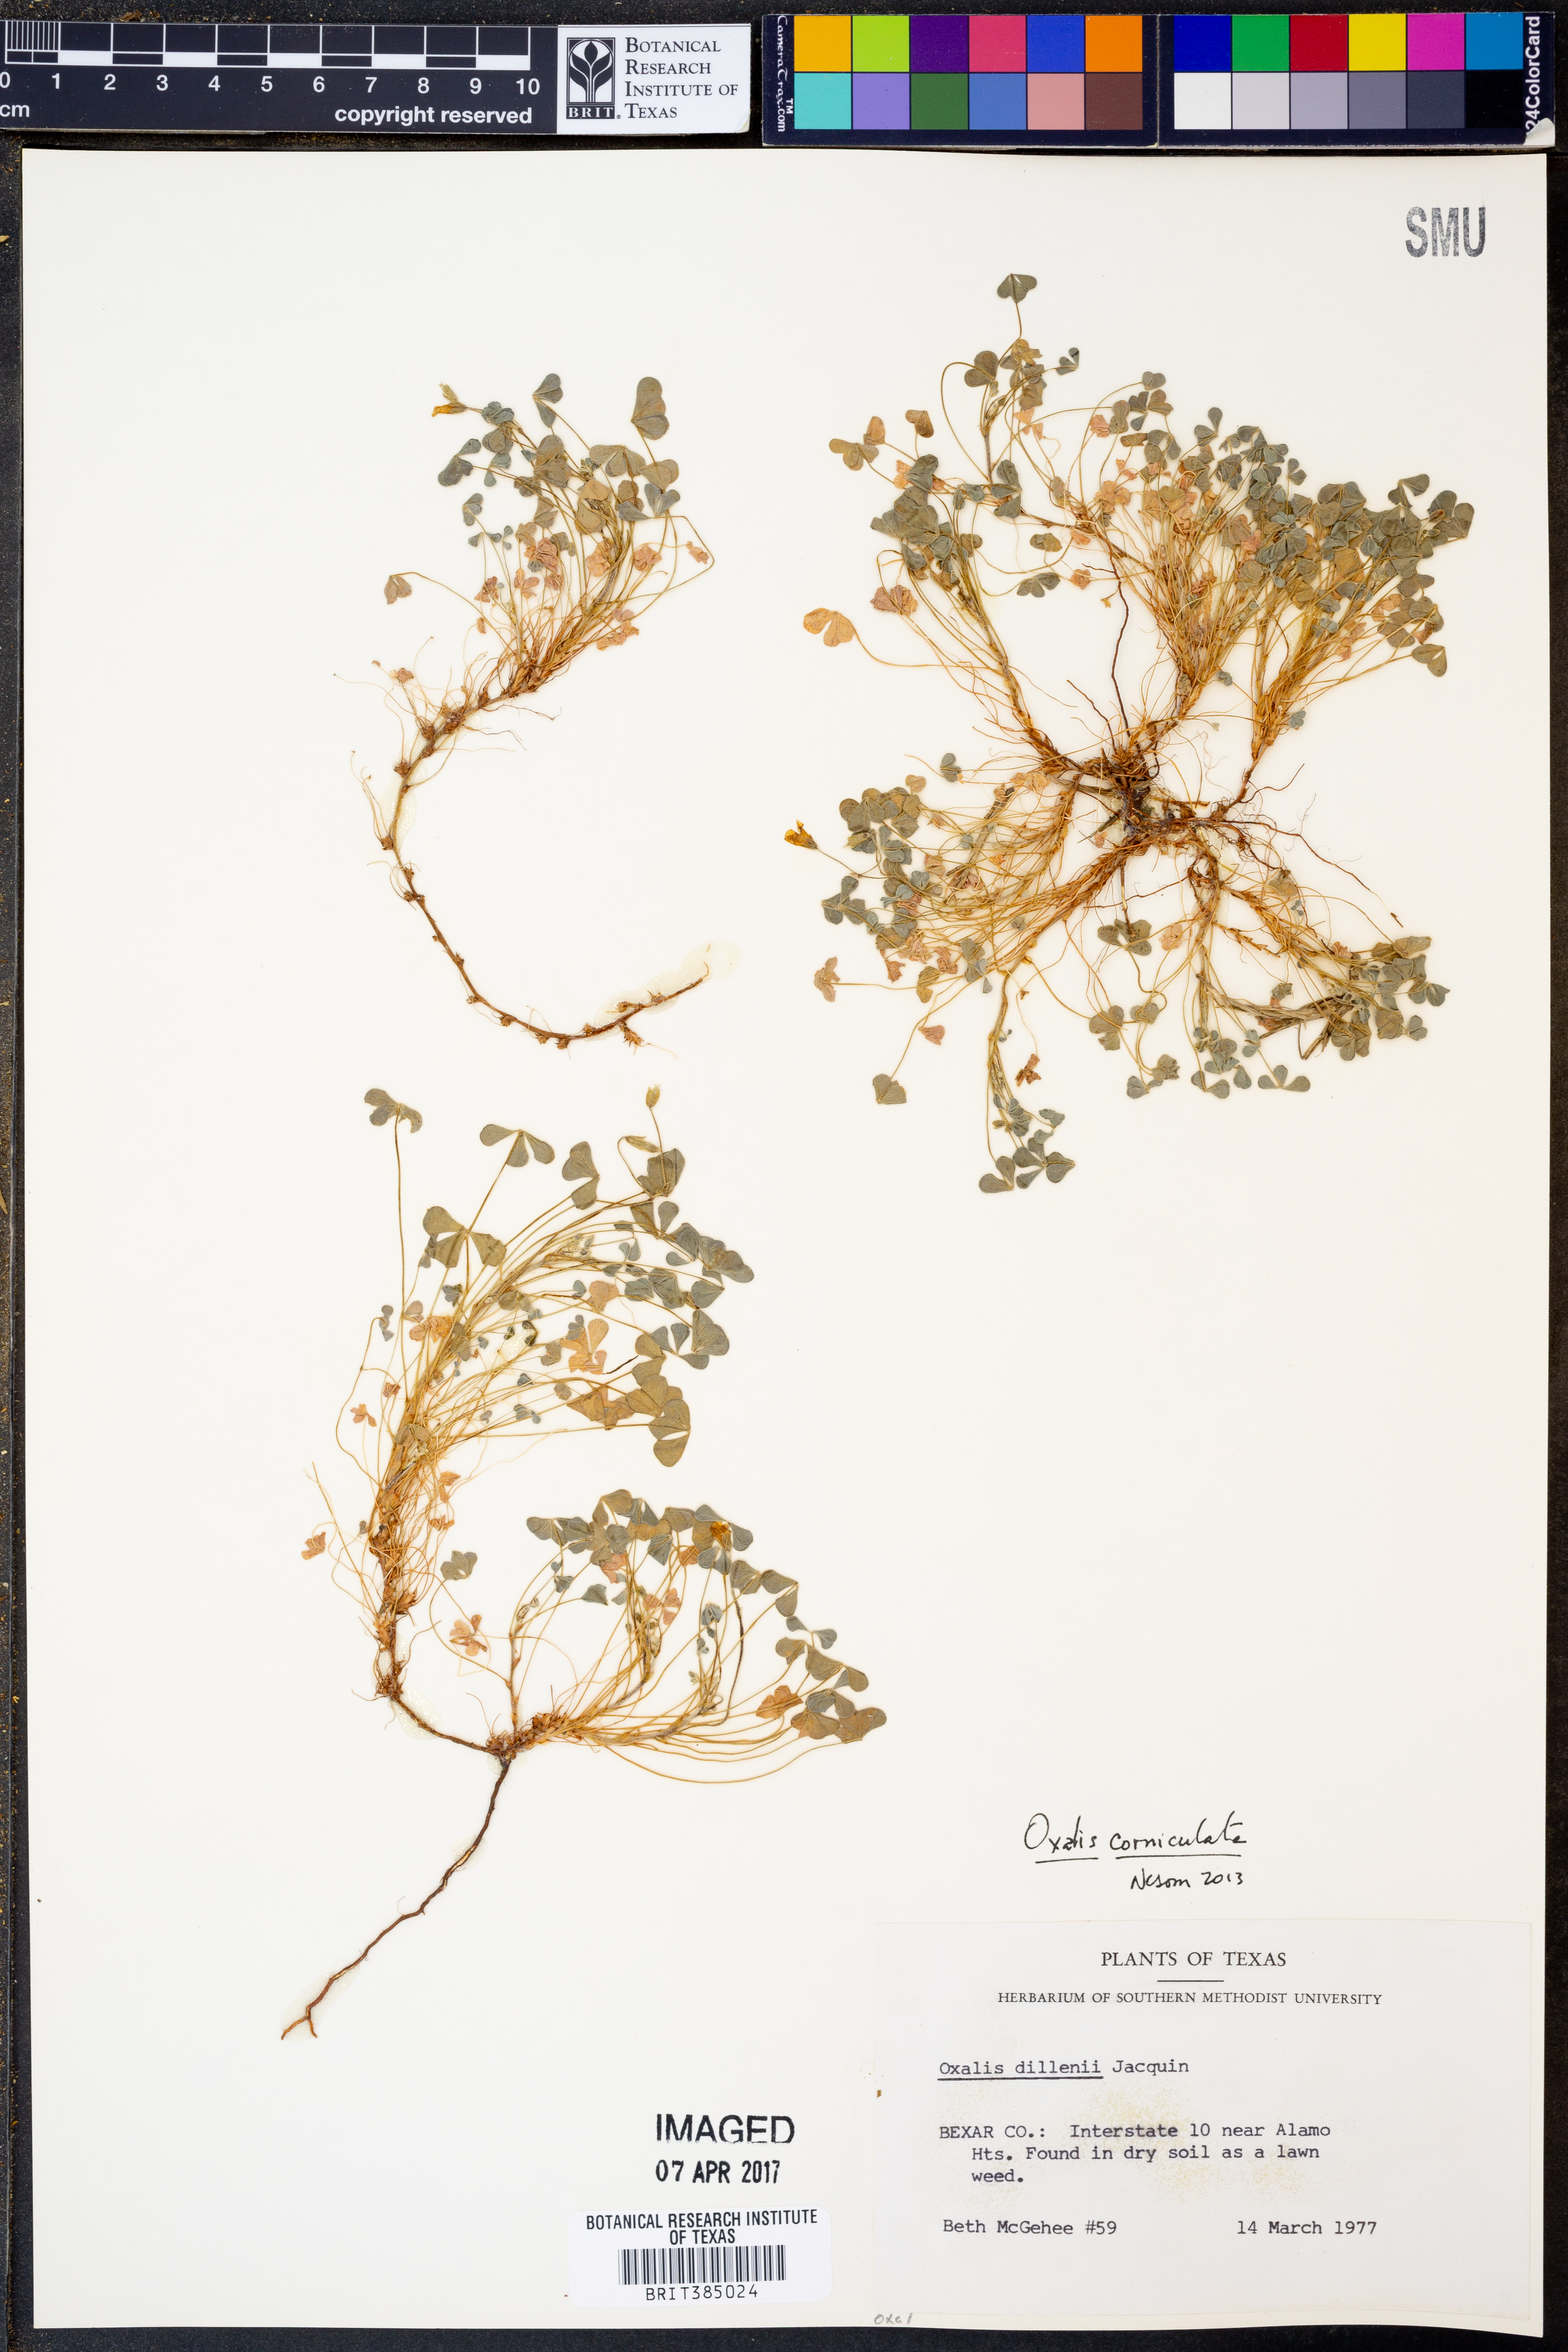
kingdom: Plantae
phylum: Tracheophyta
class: Magnoliopsida
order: Oxalidales
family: Oxalidaceae
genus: Oxalis
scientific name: Oxalis corniculata
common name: Procumbent yellow-sorrel
